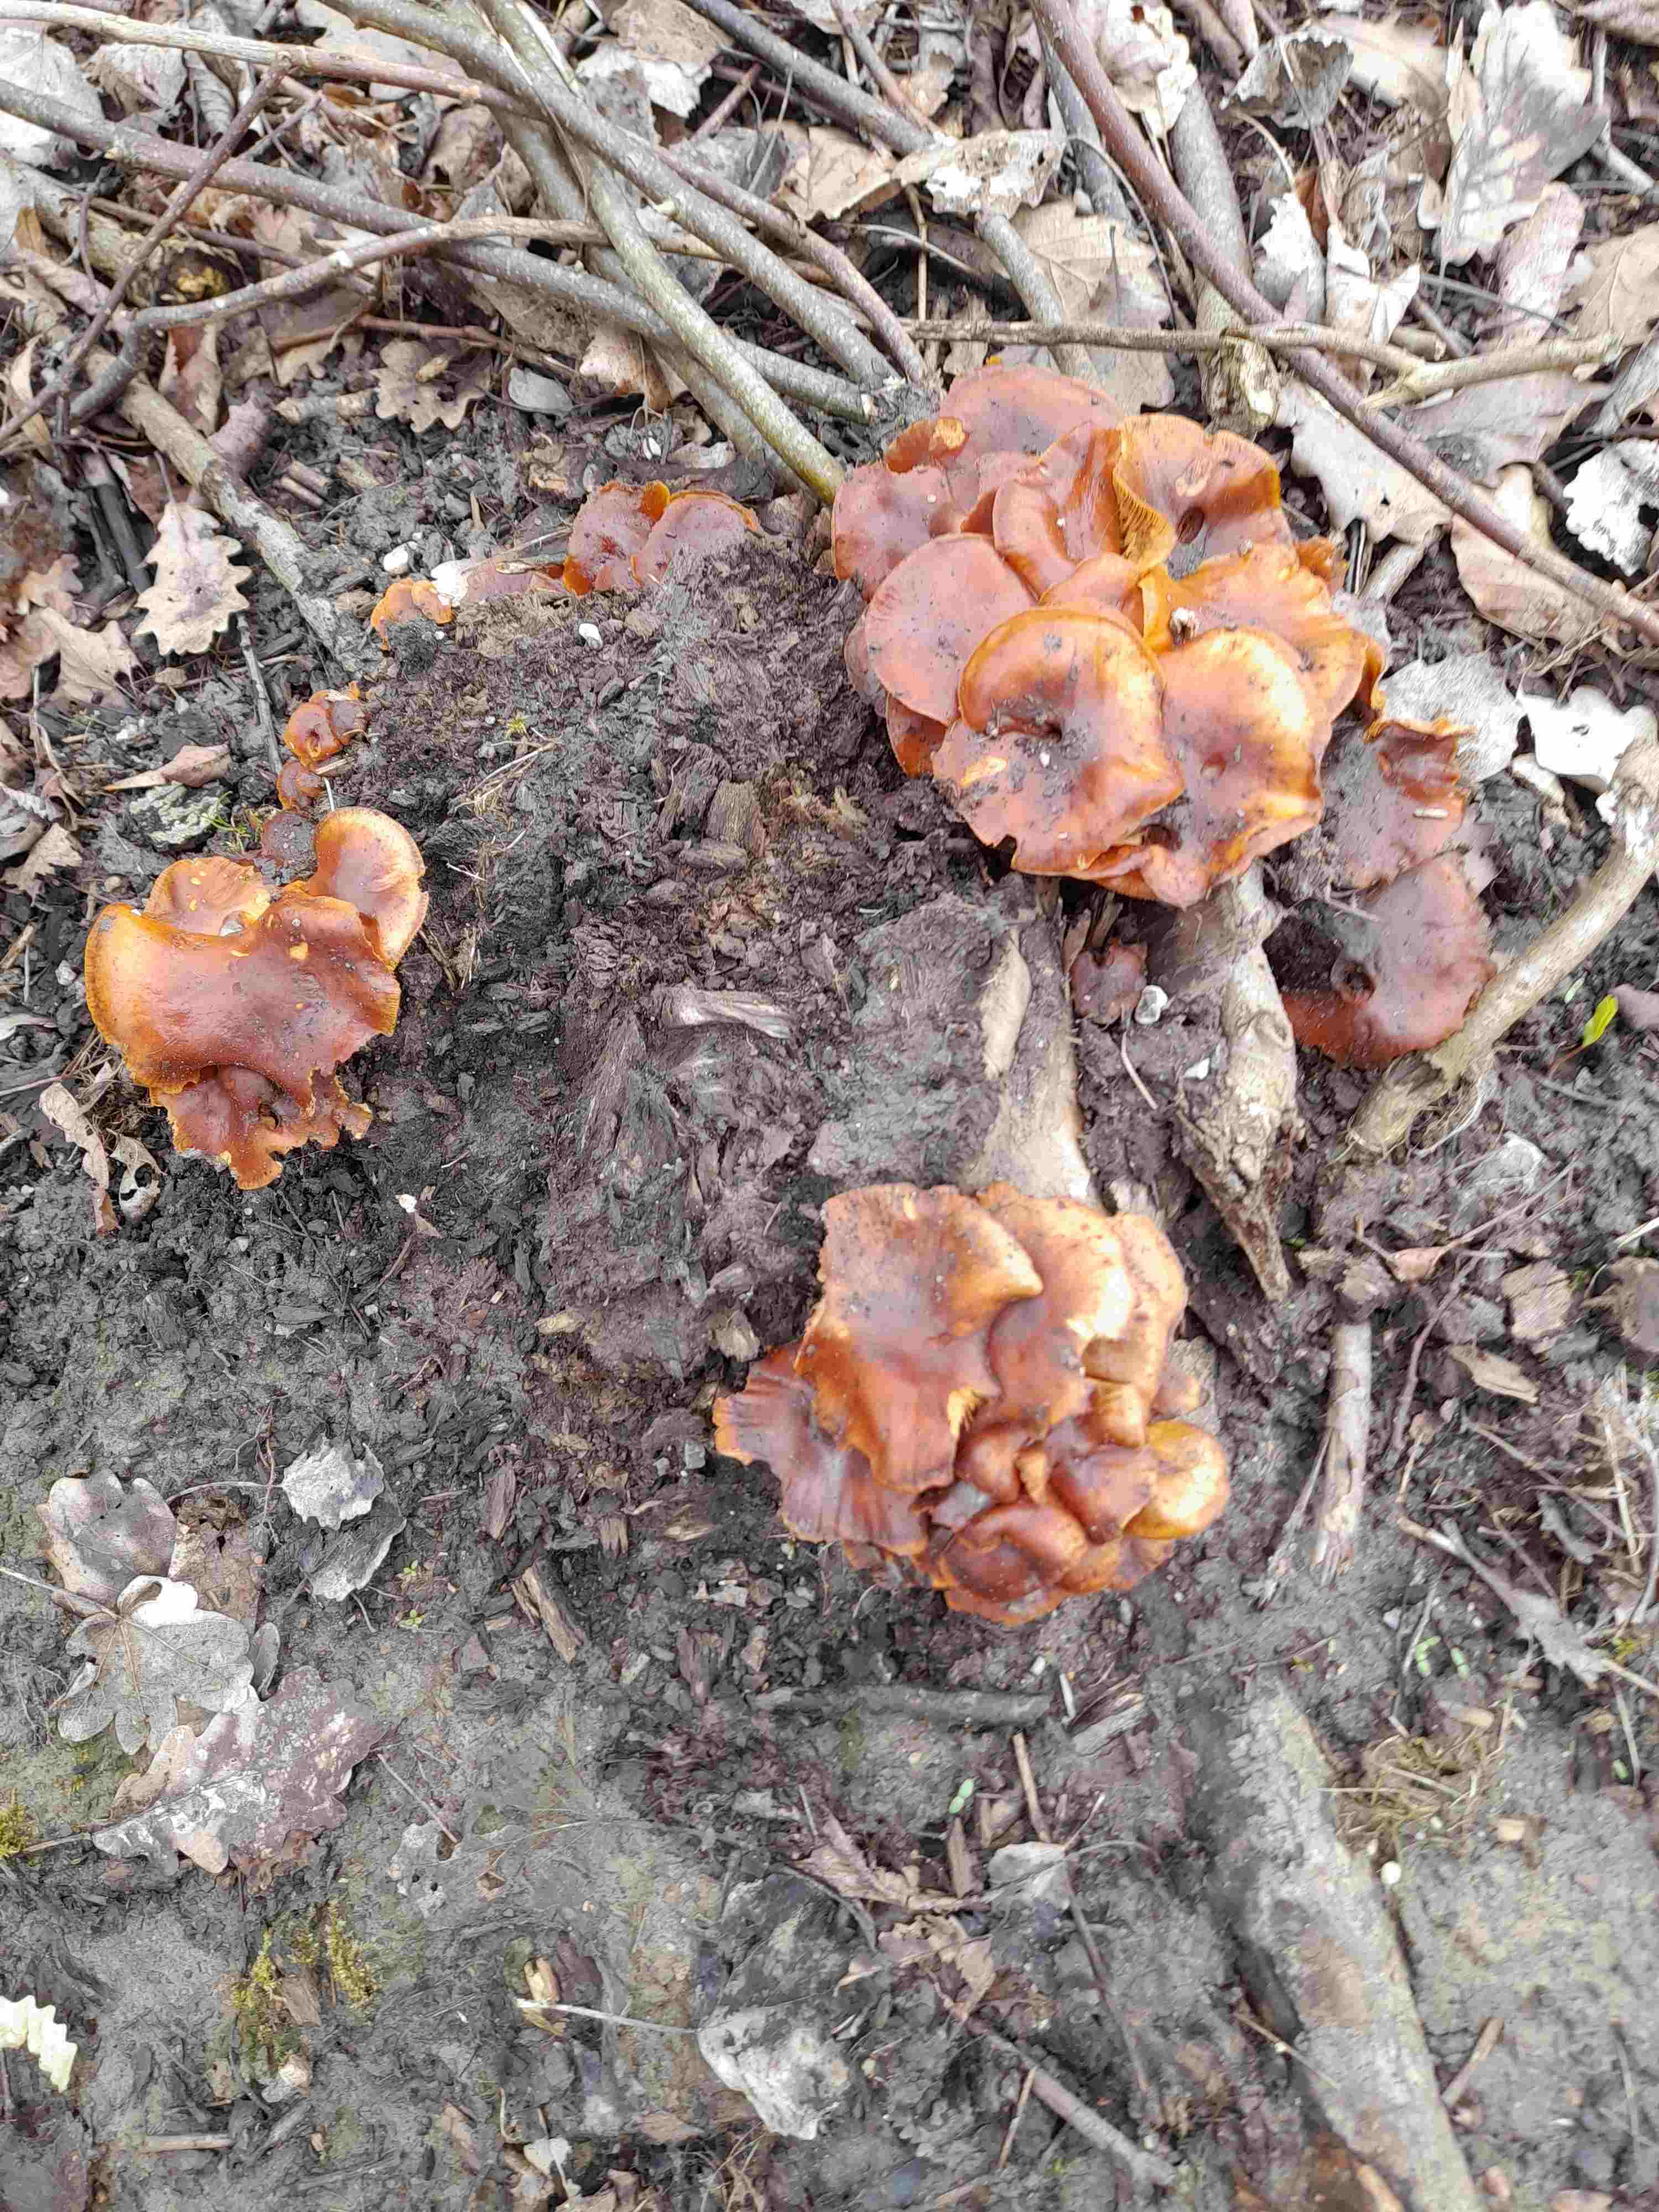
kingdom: Fungi
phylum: Basidiomycota
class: Agaricomycetes
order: Agaricales
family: Physalacriaceae
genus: Flammulina
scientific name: Flammulina velutipes
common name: gul fløjlsfod
